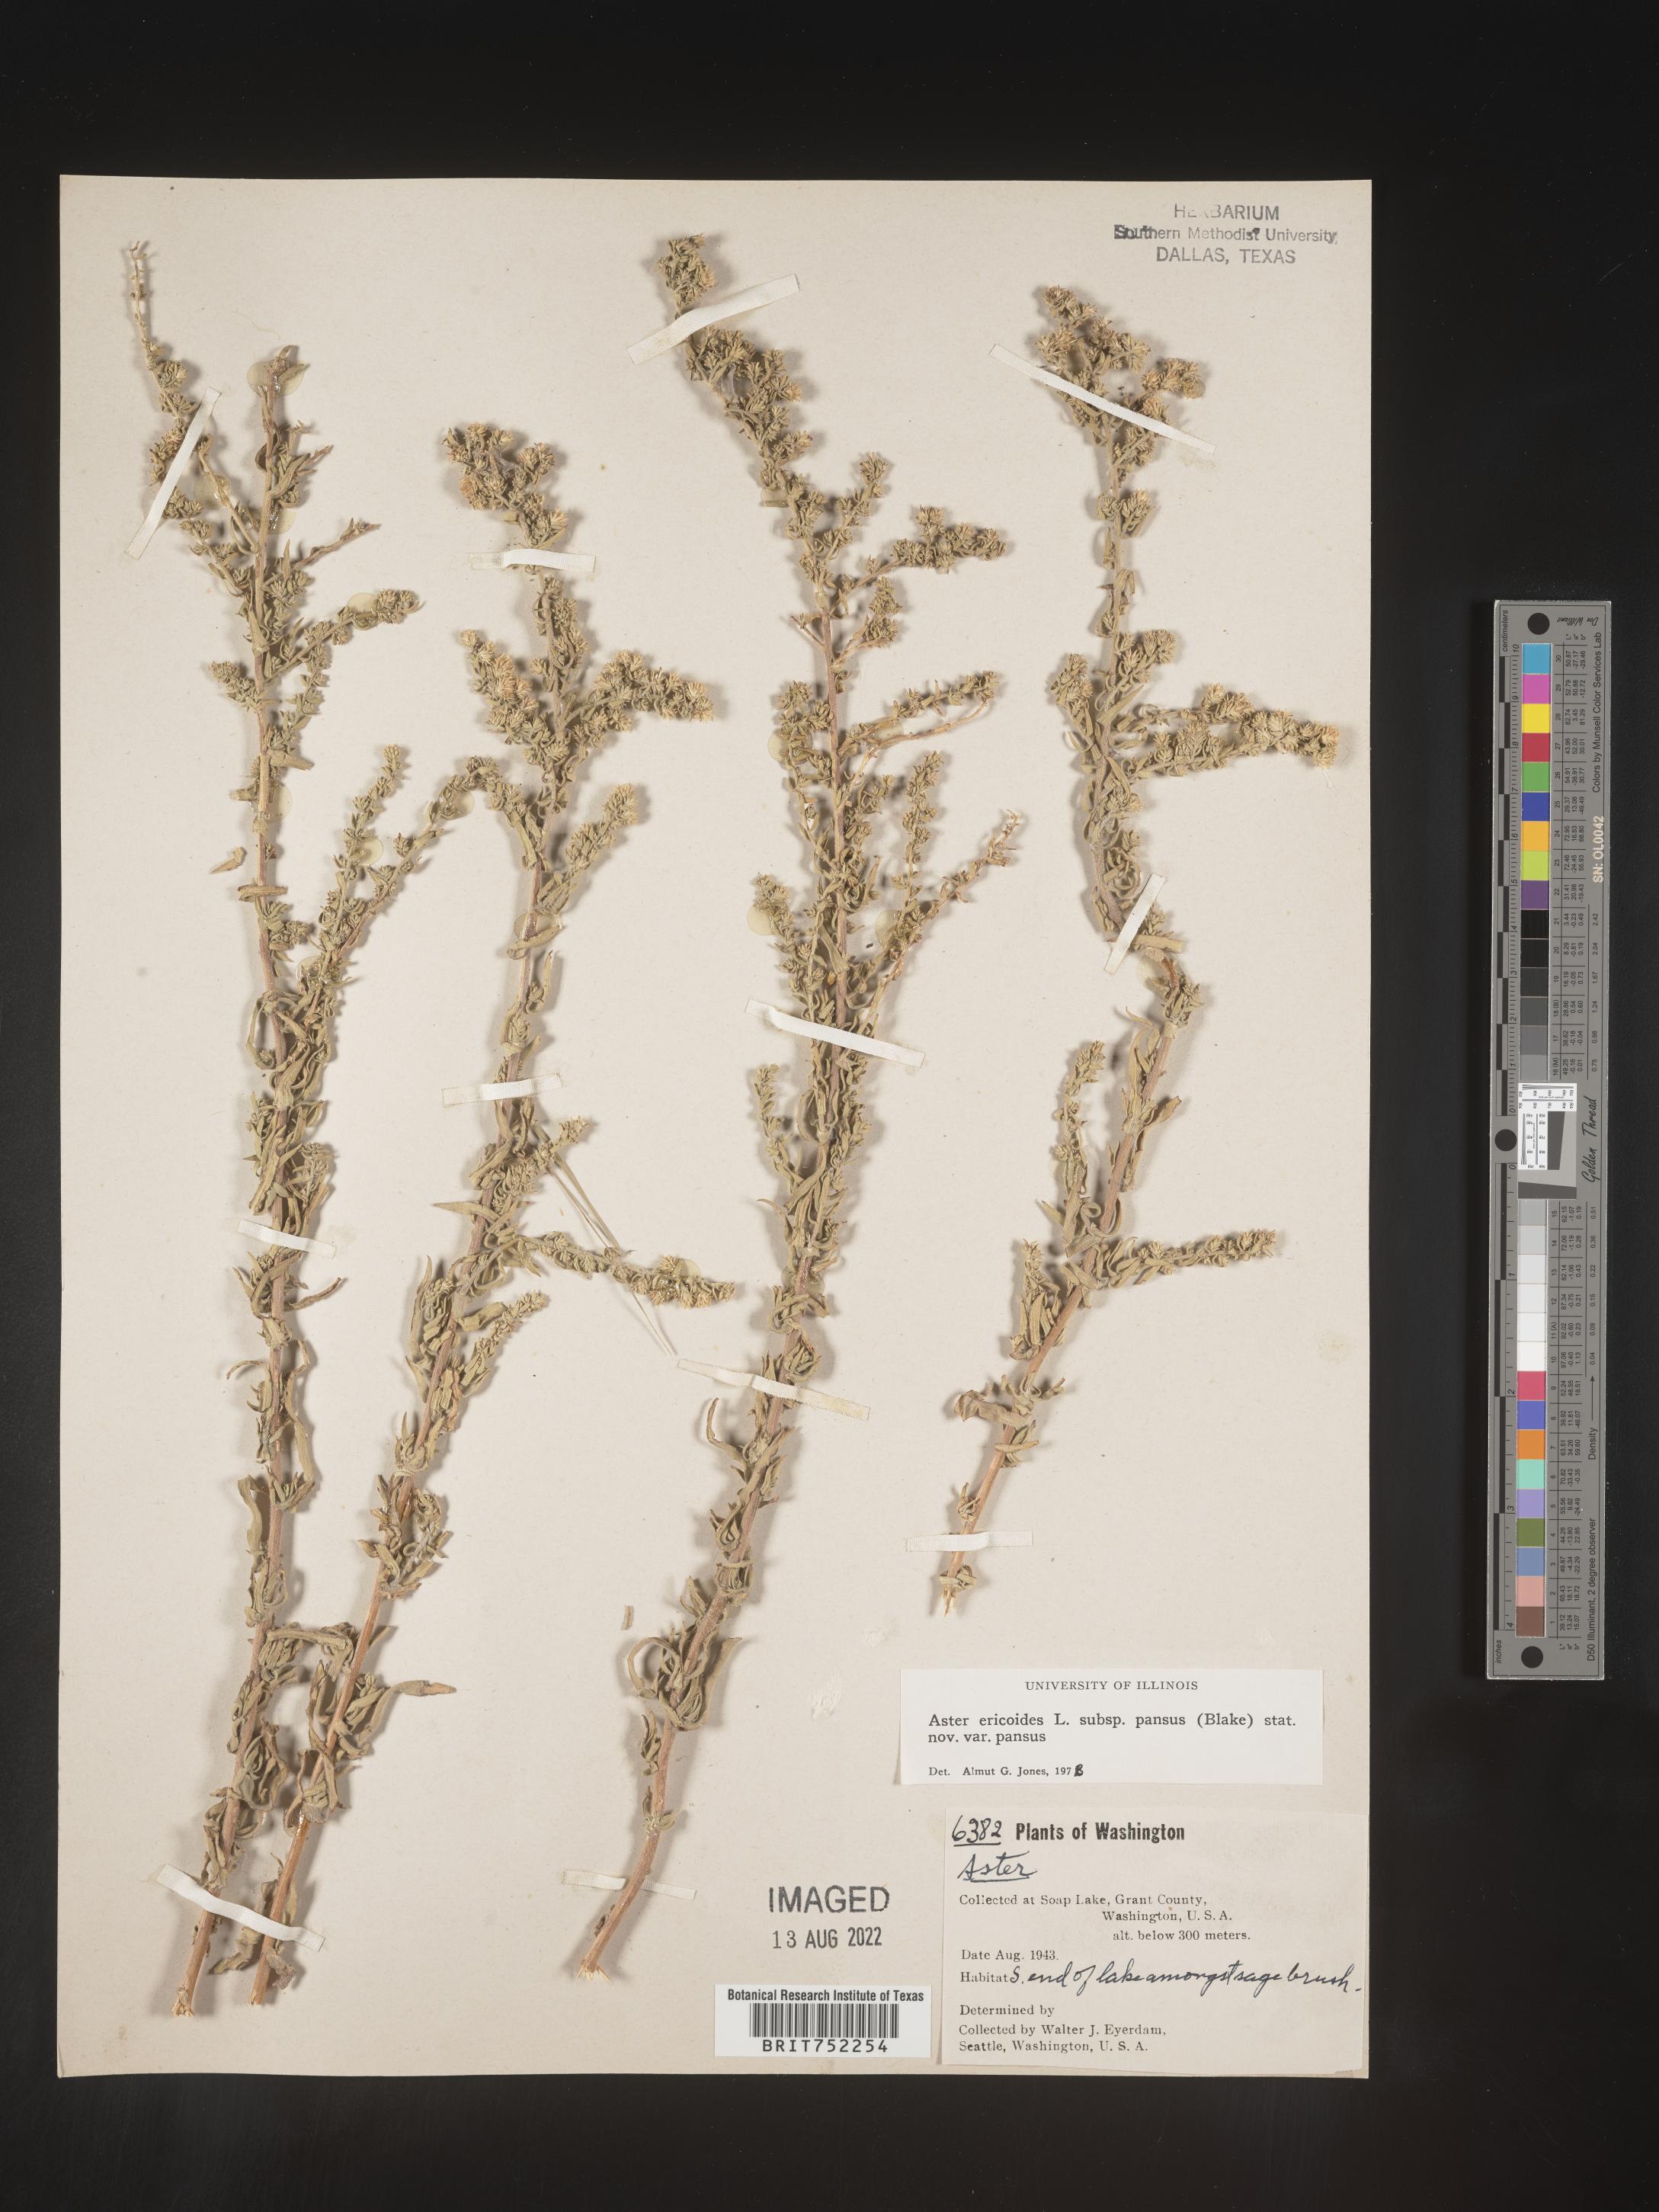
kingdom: Plantae
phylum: Tracheophyta
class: Magnoliopsida
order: Asterales
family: Asteraceae
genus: Symphyotrichum
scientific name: Symphyotrichum ericoides
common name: Heath aster
